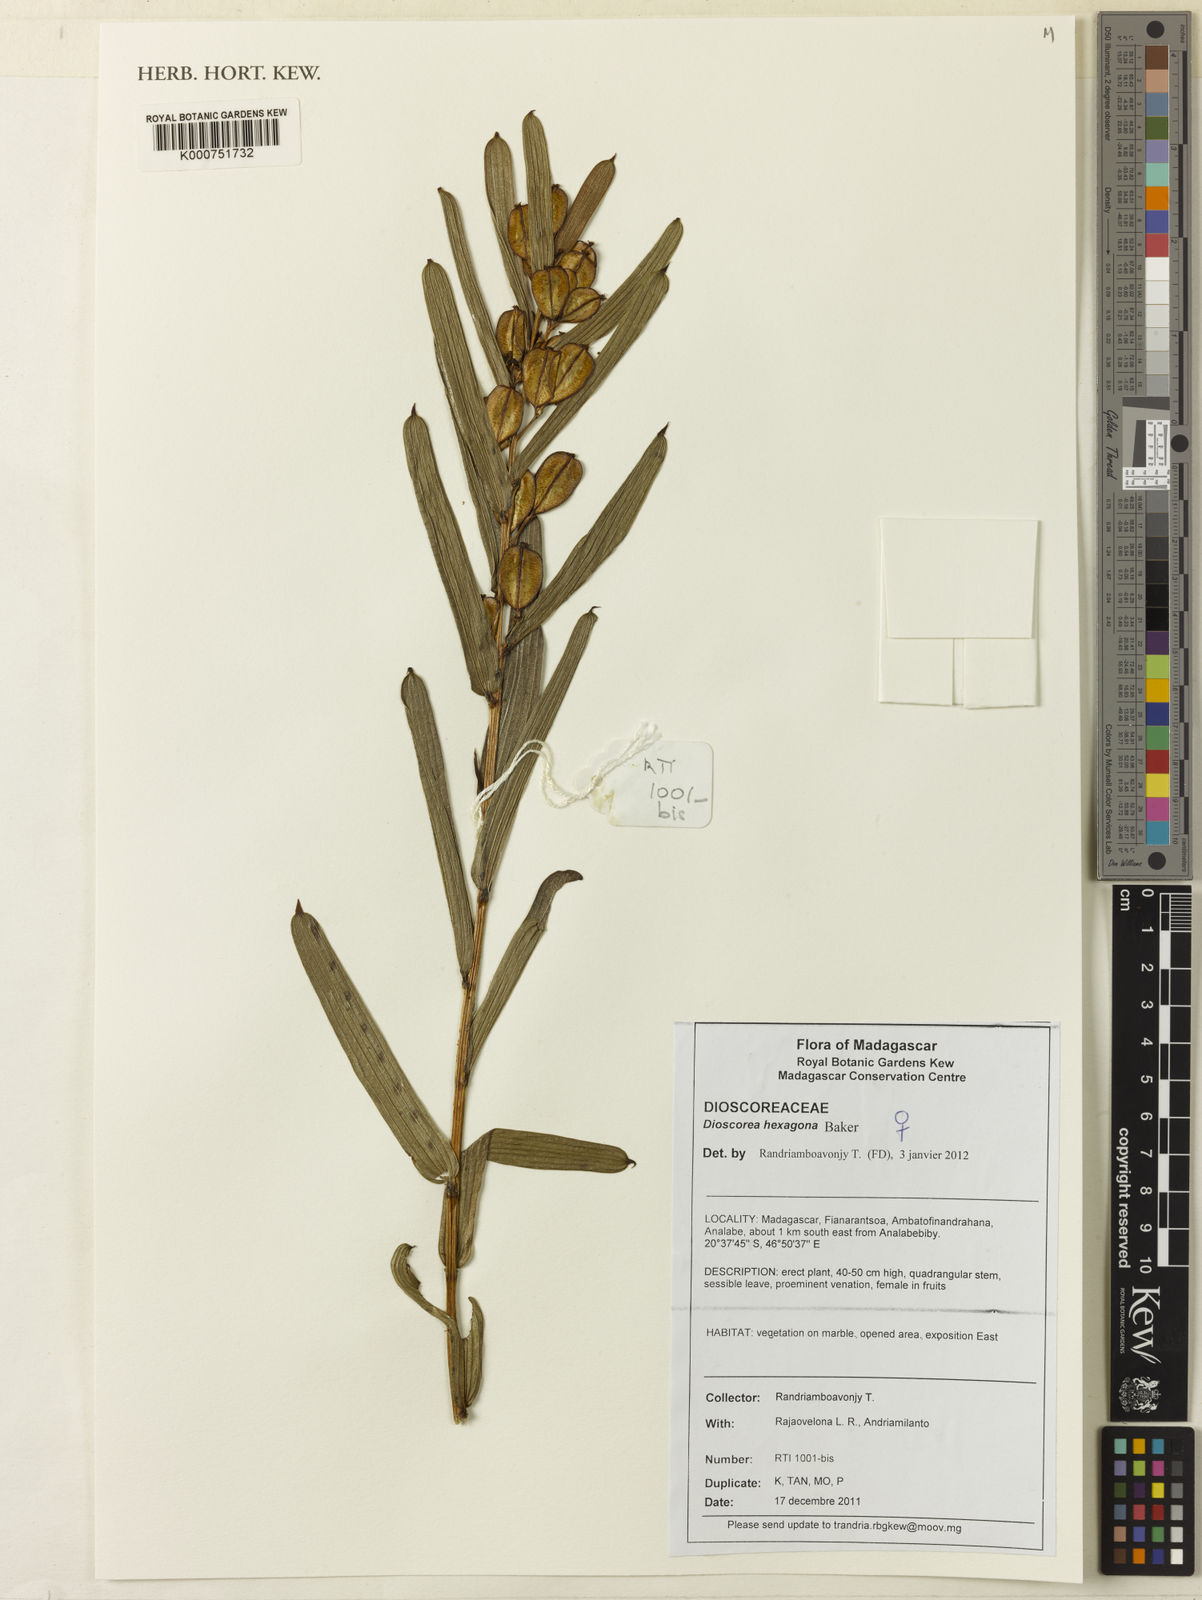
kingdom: Plantae
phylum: Tracheophyta
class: Liliopsida
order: Dioscoreales
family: Dioscoreaceae
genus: Dioscorea
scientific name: Dioscorea hexagona
